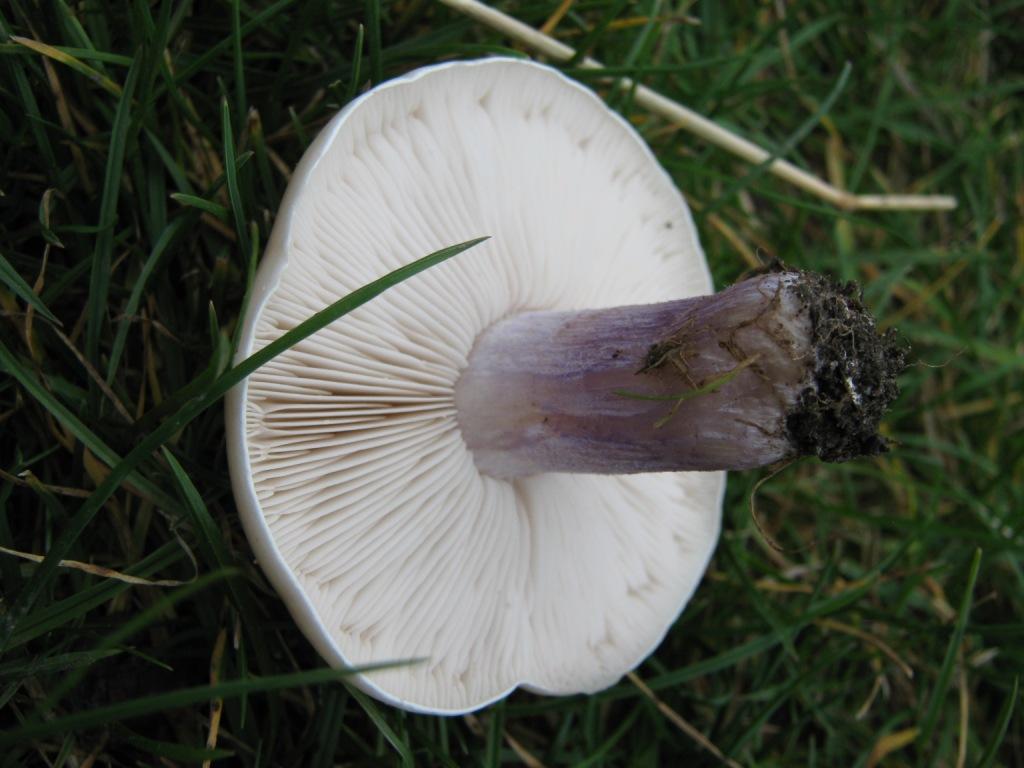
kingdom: Fungi
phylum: Basidiomycota
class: Agaricomycetes
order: Agaricales
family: Tricholomataceae
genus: Lepista
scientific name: Lepista personata
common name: bleg hekseringshat
